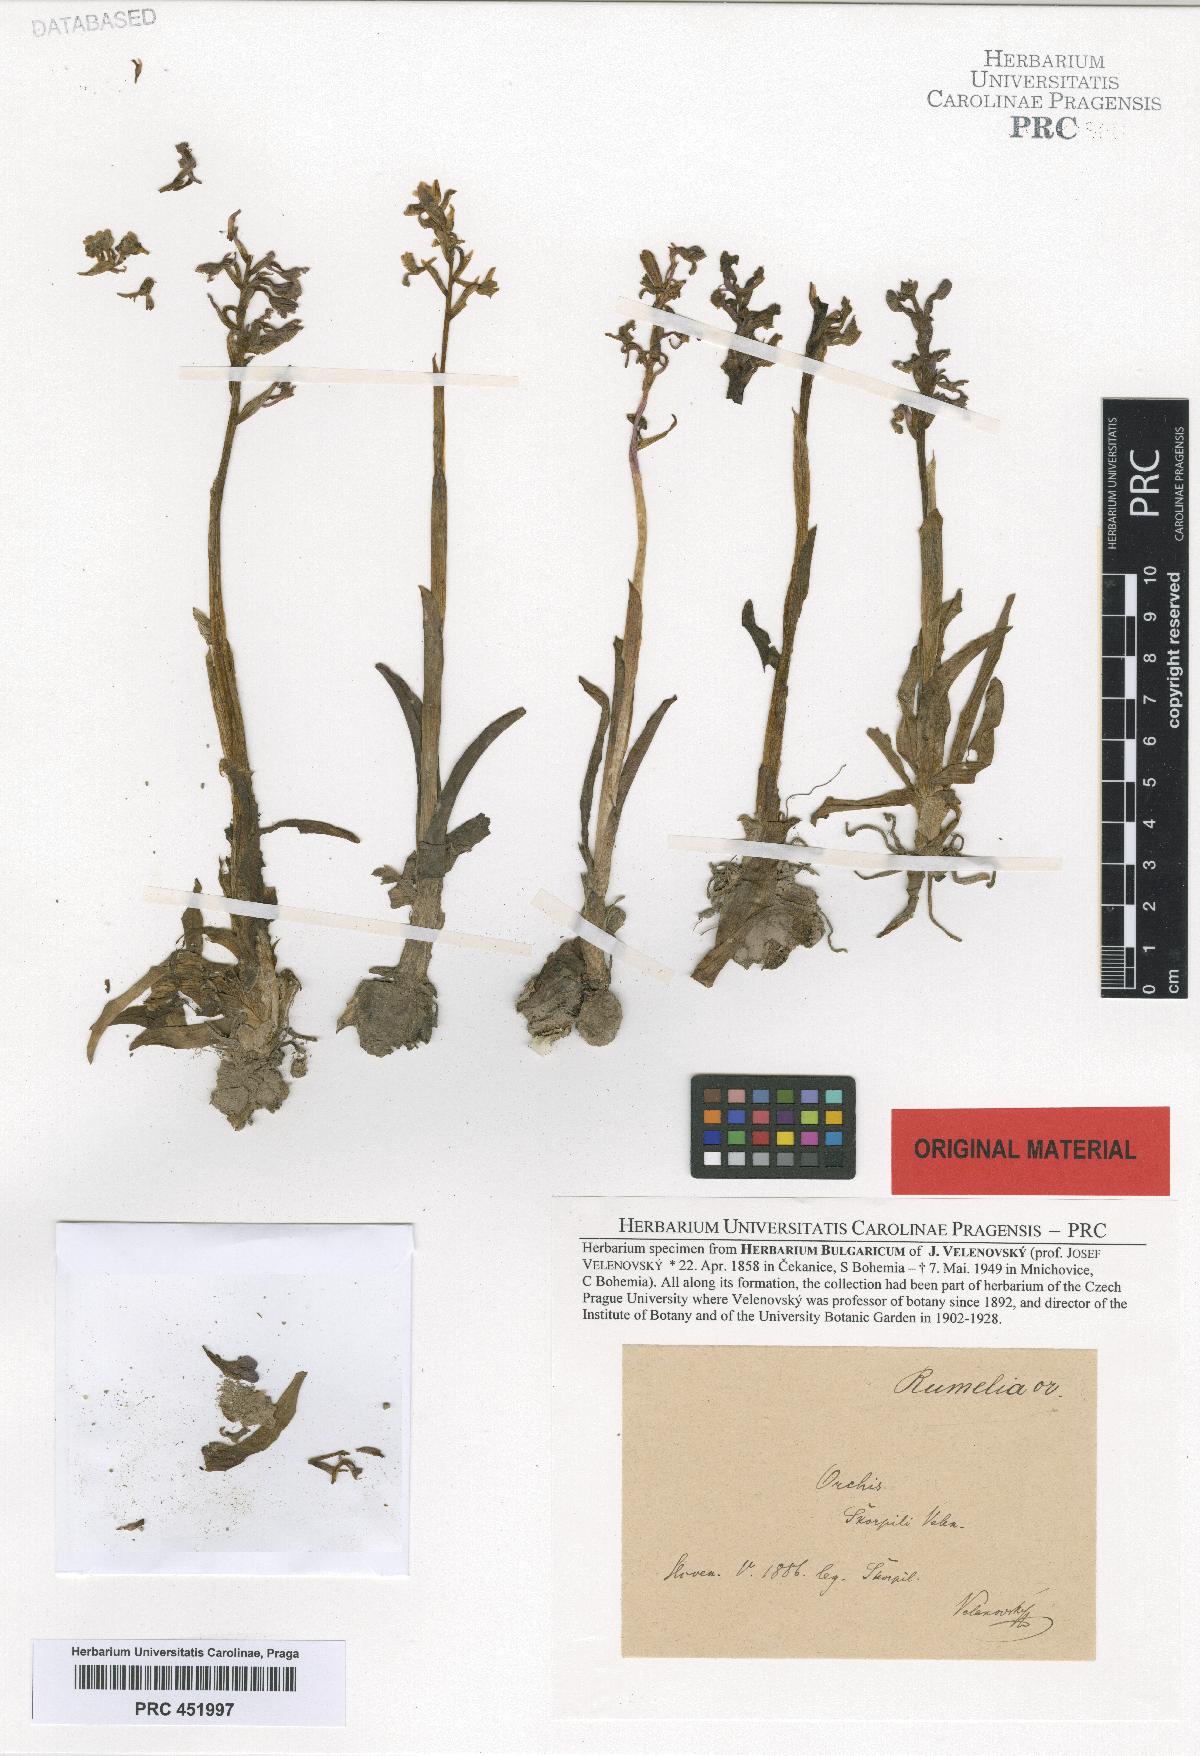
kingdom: Plantae
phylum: Tracheophyta
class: Liliopsida
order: Asparagales
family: Orchidaceae
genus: Anacamptis
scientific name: Anacamptis morio
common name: Green-winged orchid
